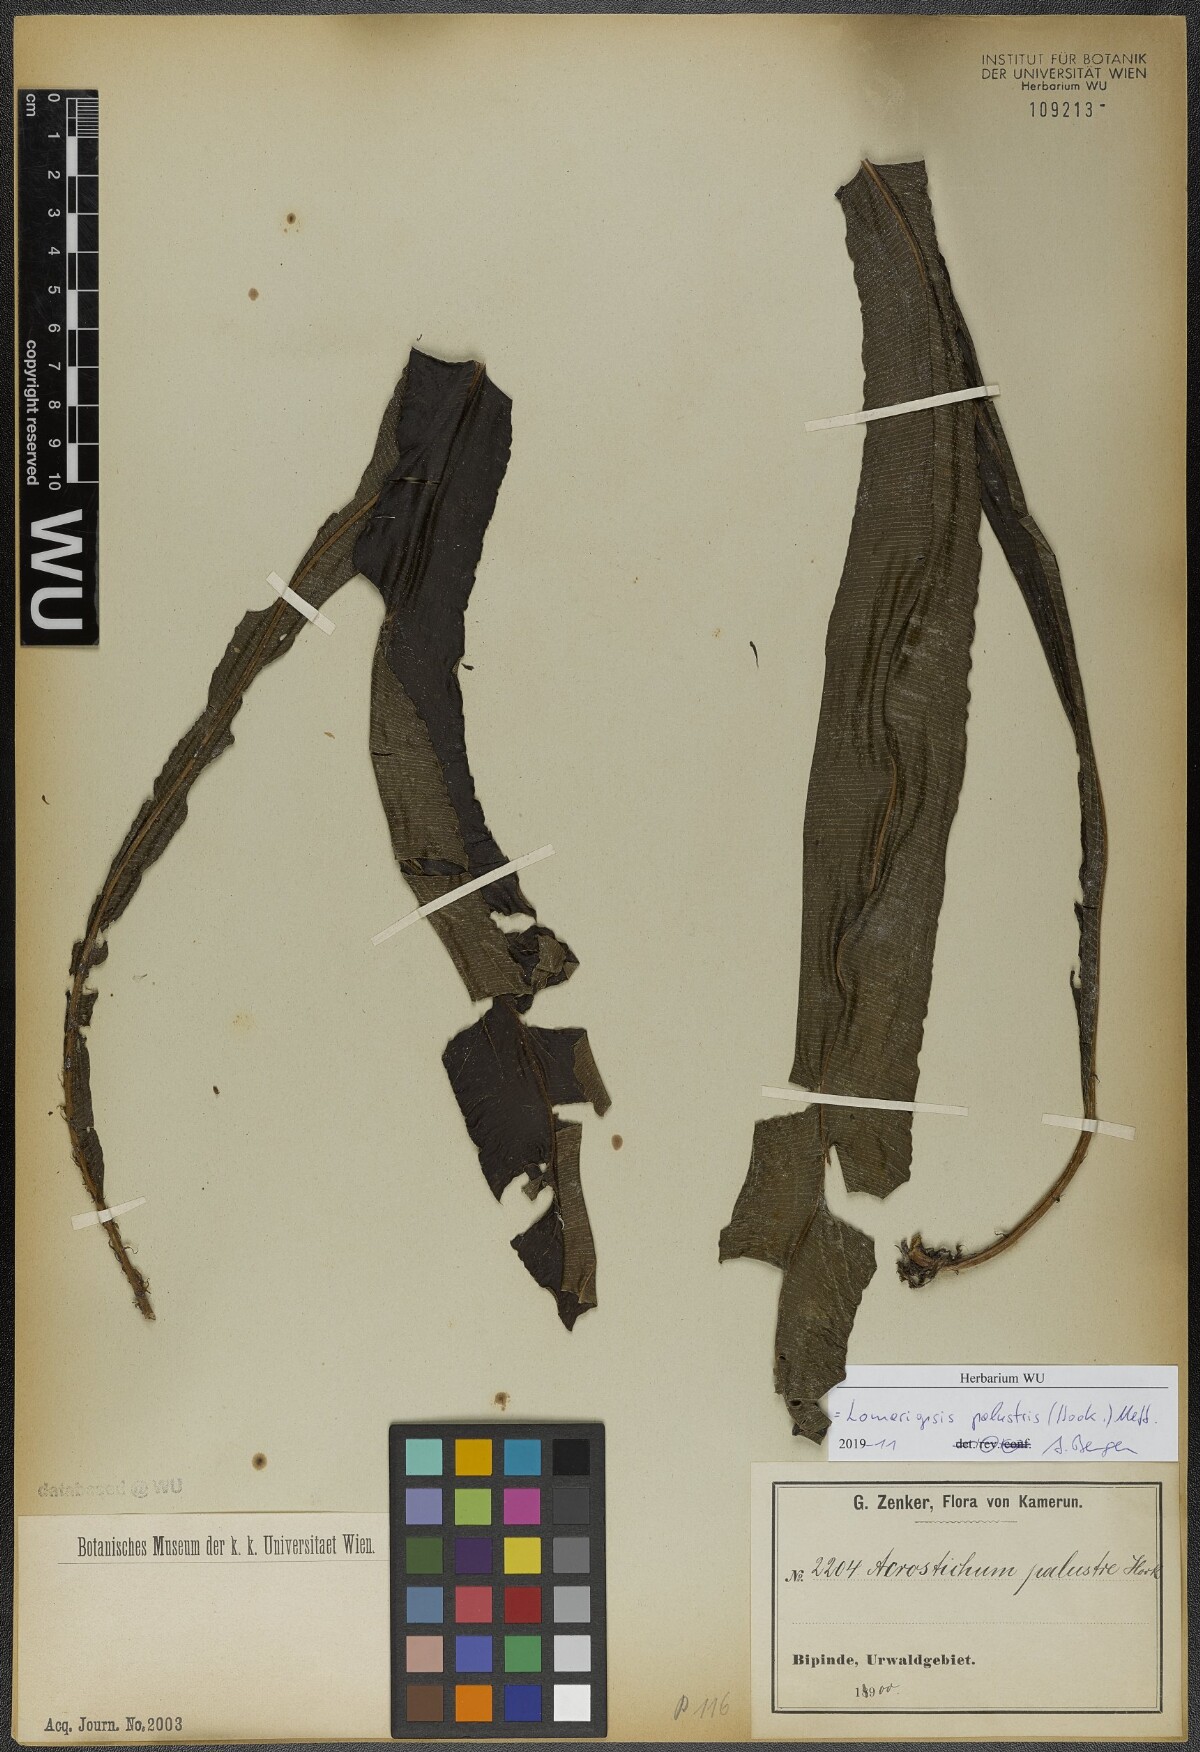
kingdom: Plantae
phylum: Tracheophyta
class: Polypodiopsida
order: Polypodiales
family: Lomariopsidaceae
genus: Lomariopsis
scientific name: Lomariopsis palustris
